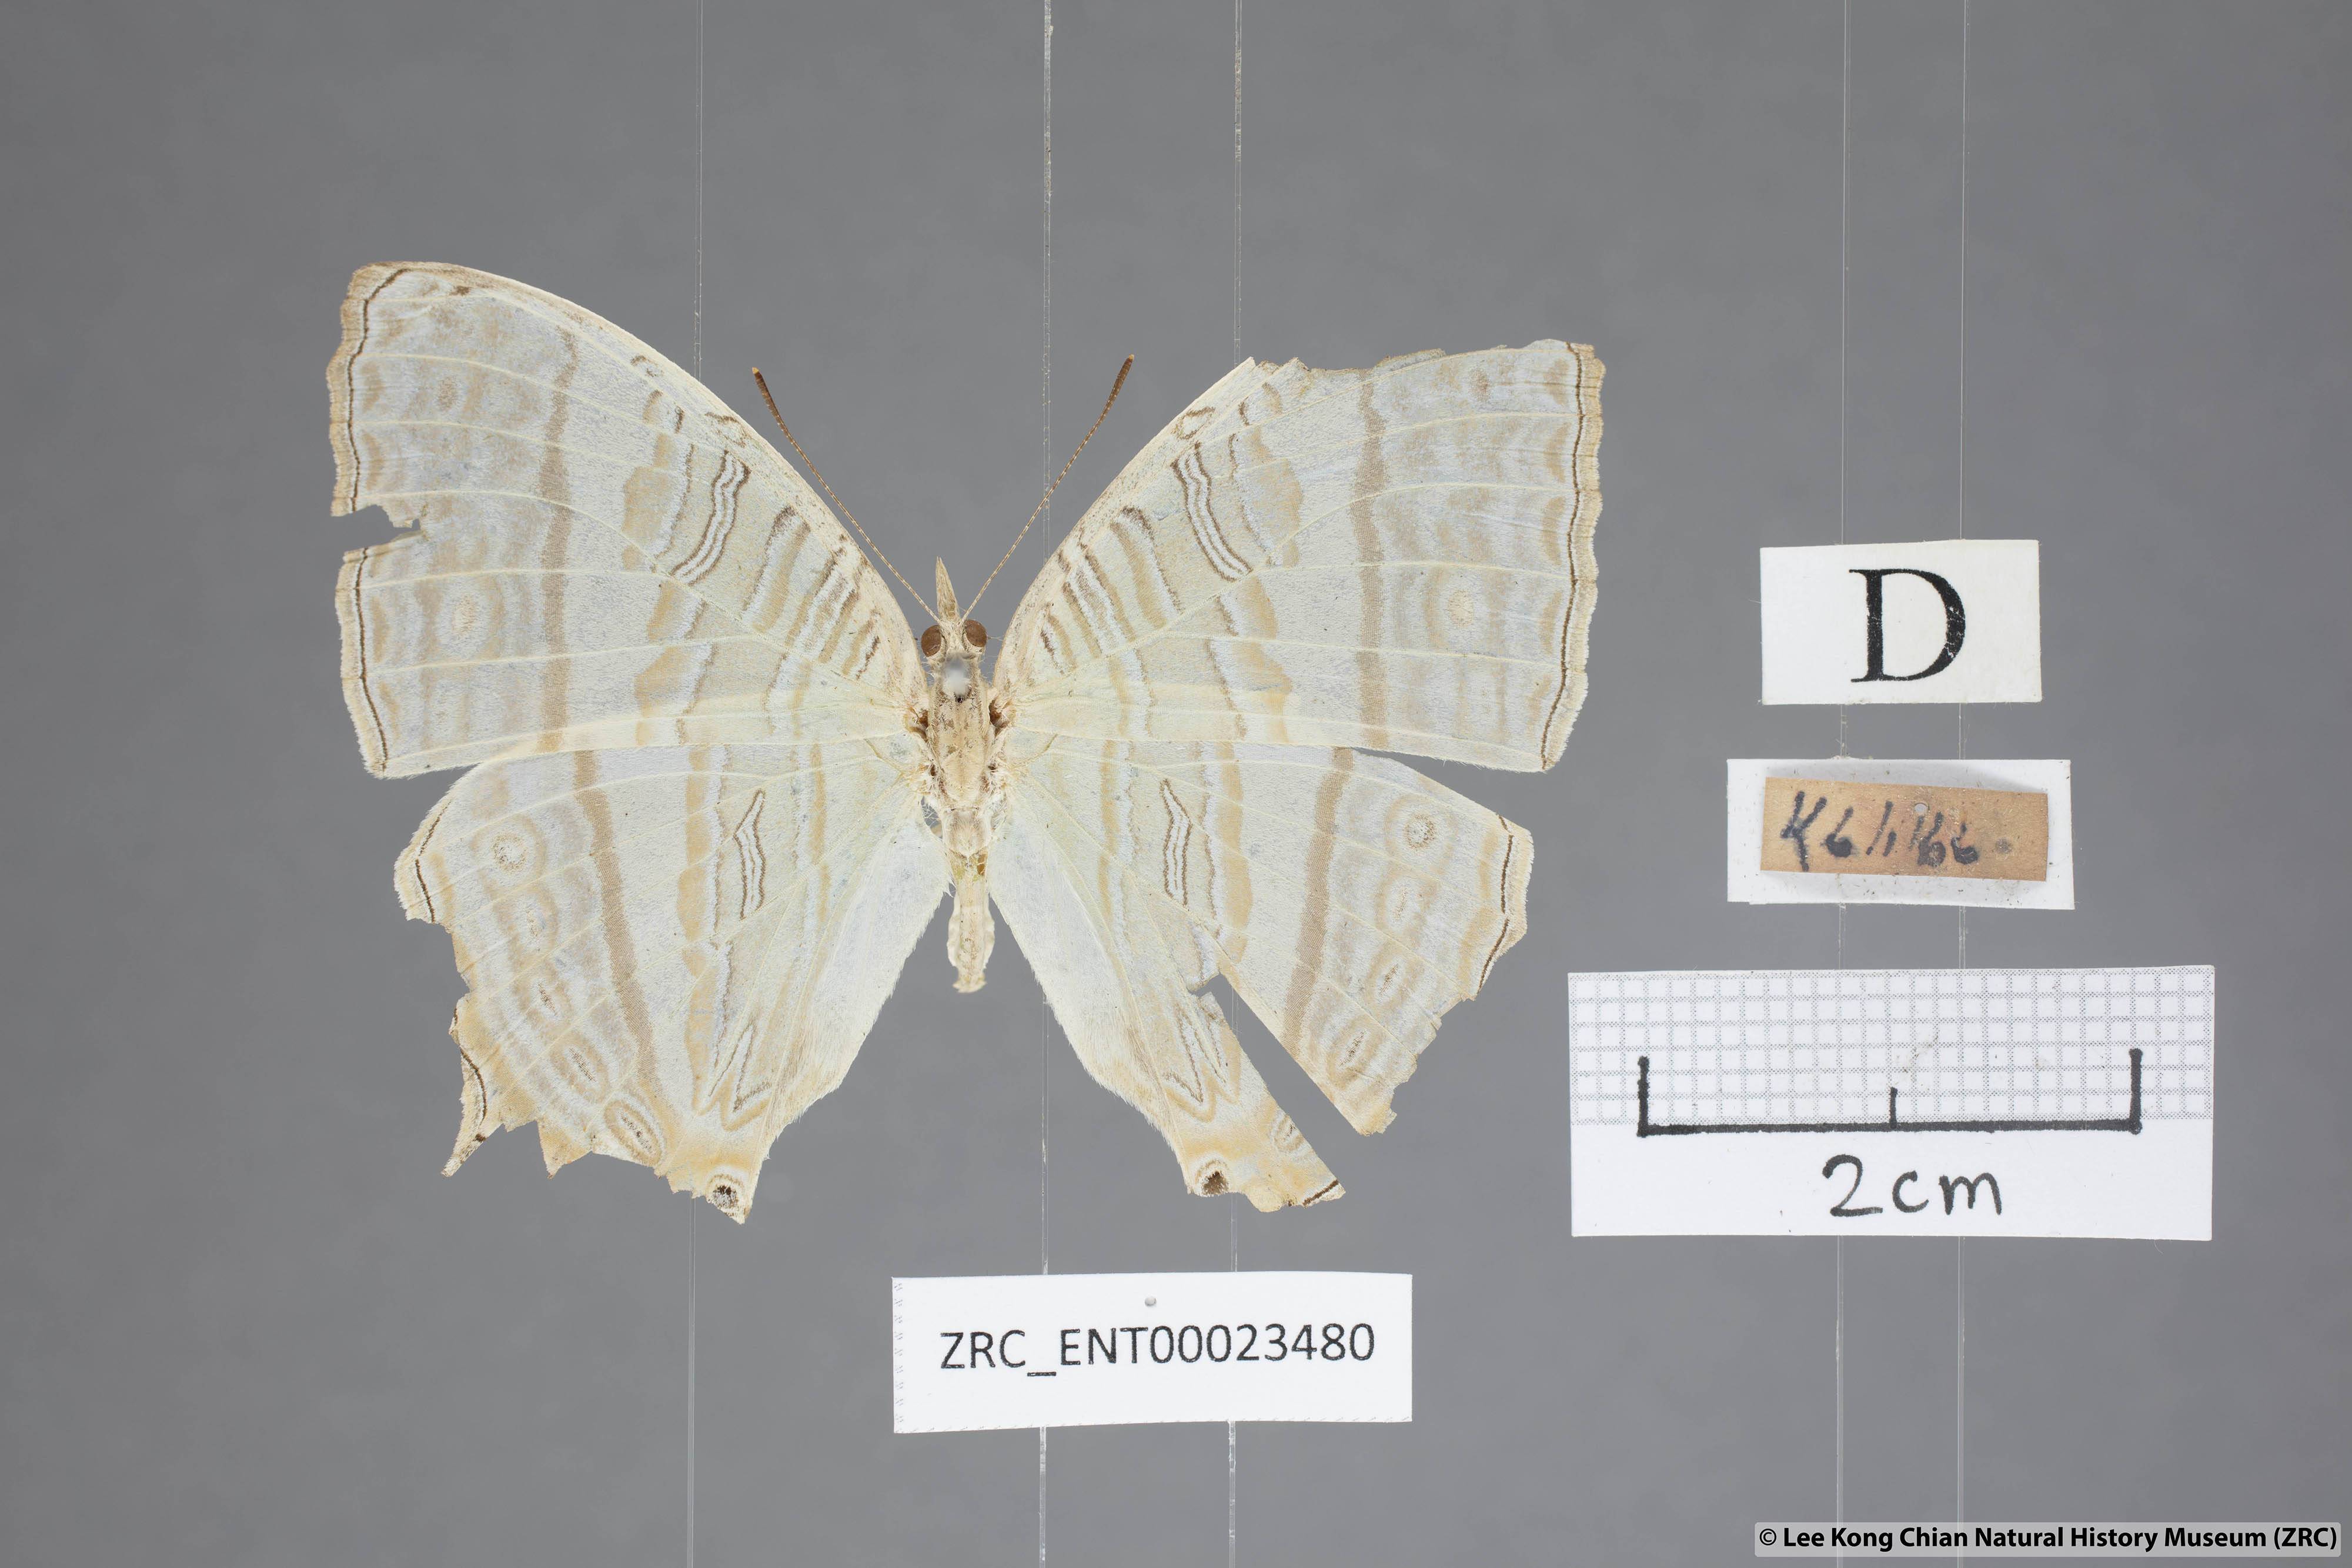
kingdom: Animalia
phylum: Arthropoda
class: Insecta
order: Lepidoptera
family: Nymphalidae
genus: Cyrestis
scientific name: Cyrestis cocles
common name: Marbled map
